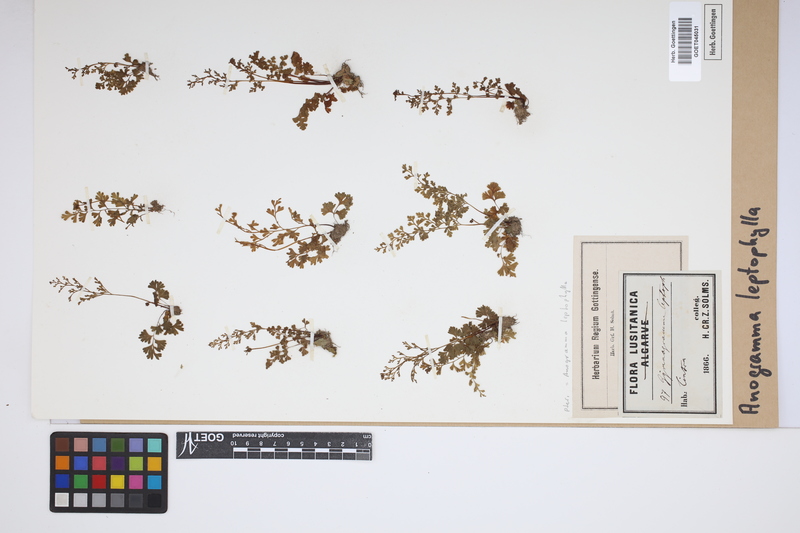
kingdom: Plantae
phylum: Tracheophyta
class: Polypodiopsida
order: Polypodiales
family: Pteridaceae
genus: Anogramma
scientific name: Anogramma leptophylla
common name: Jersey fern
